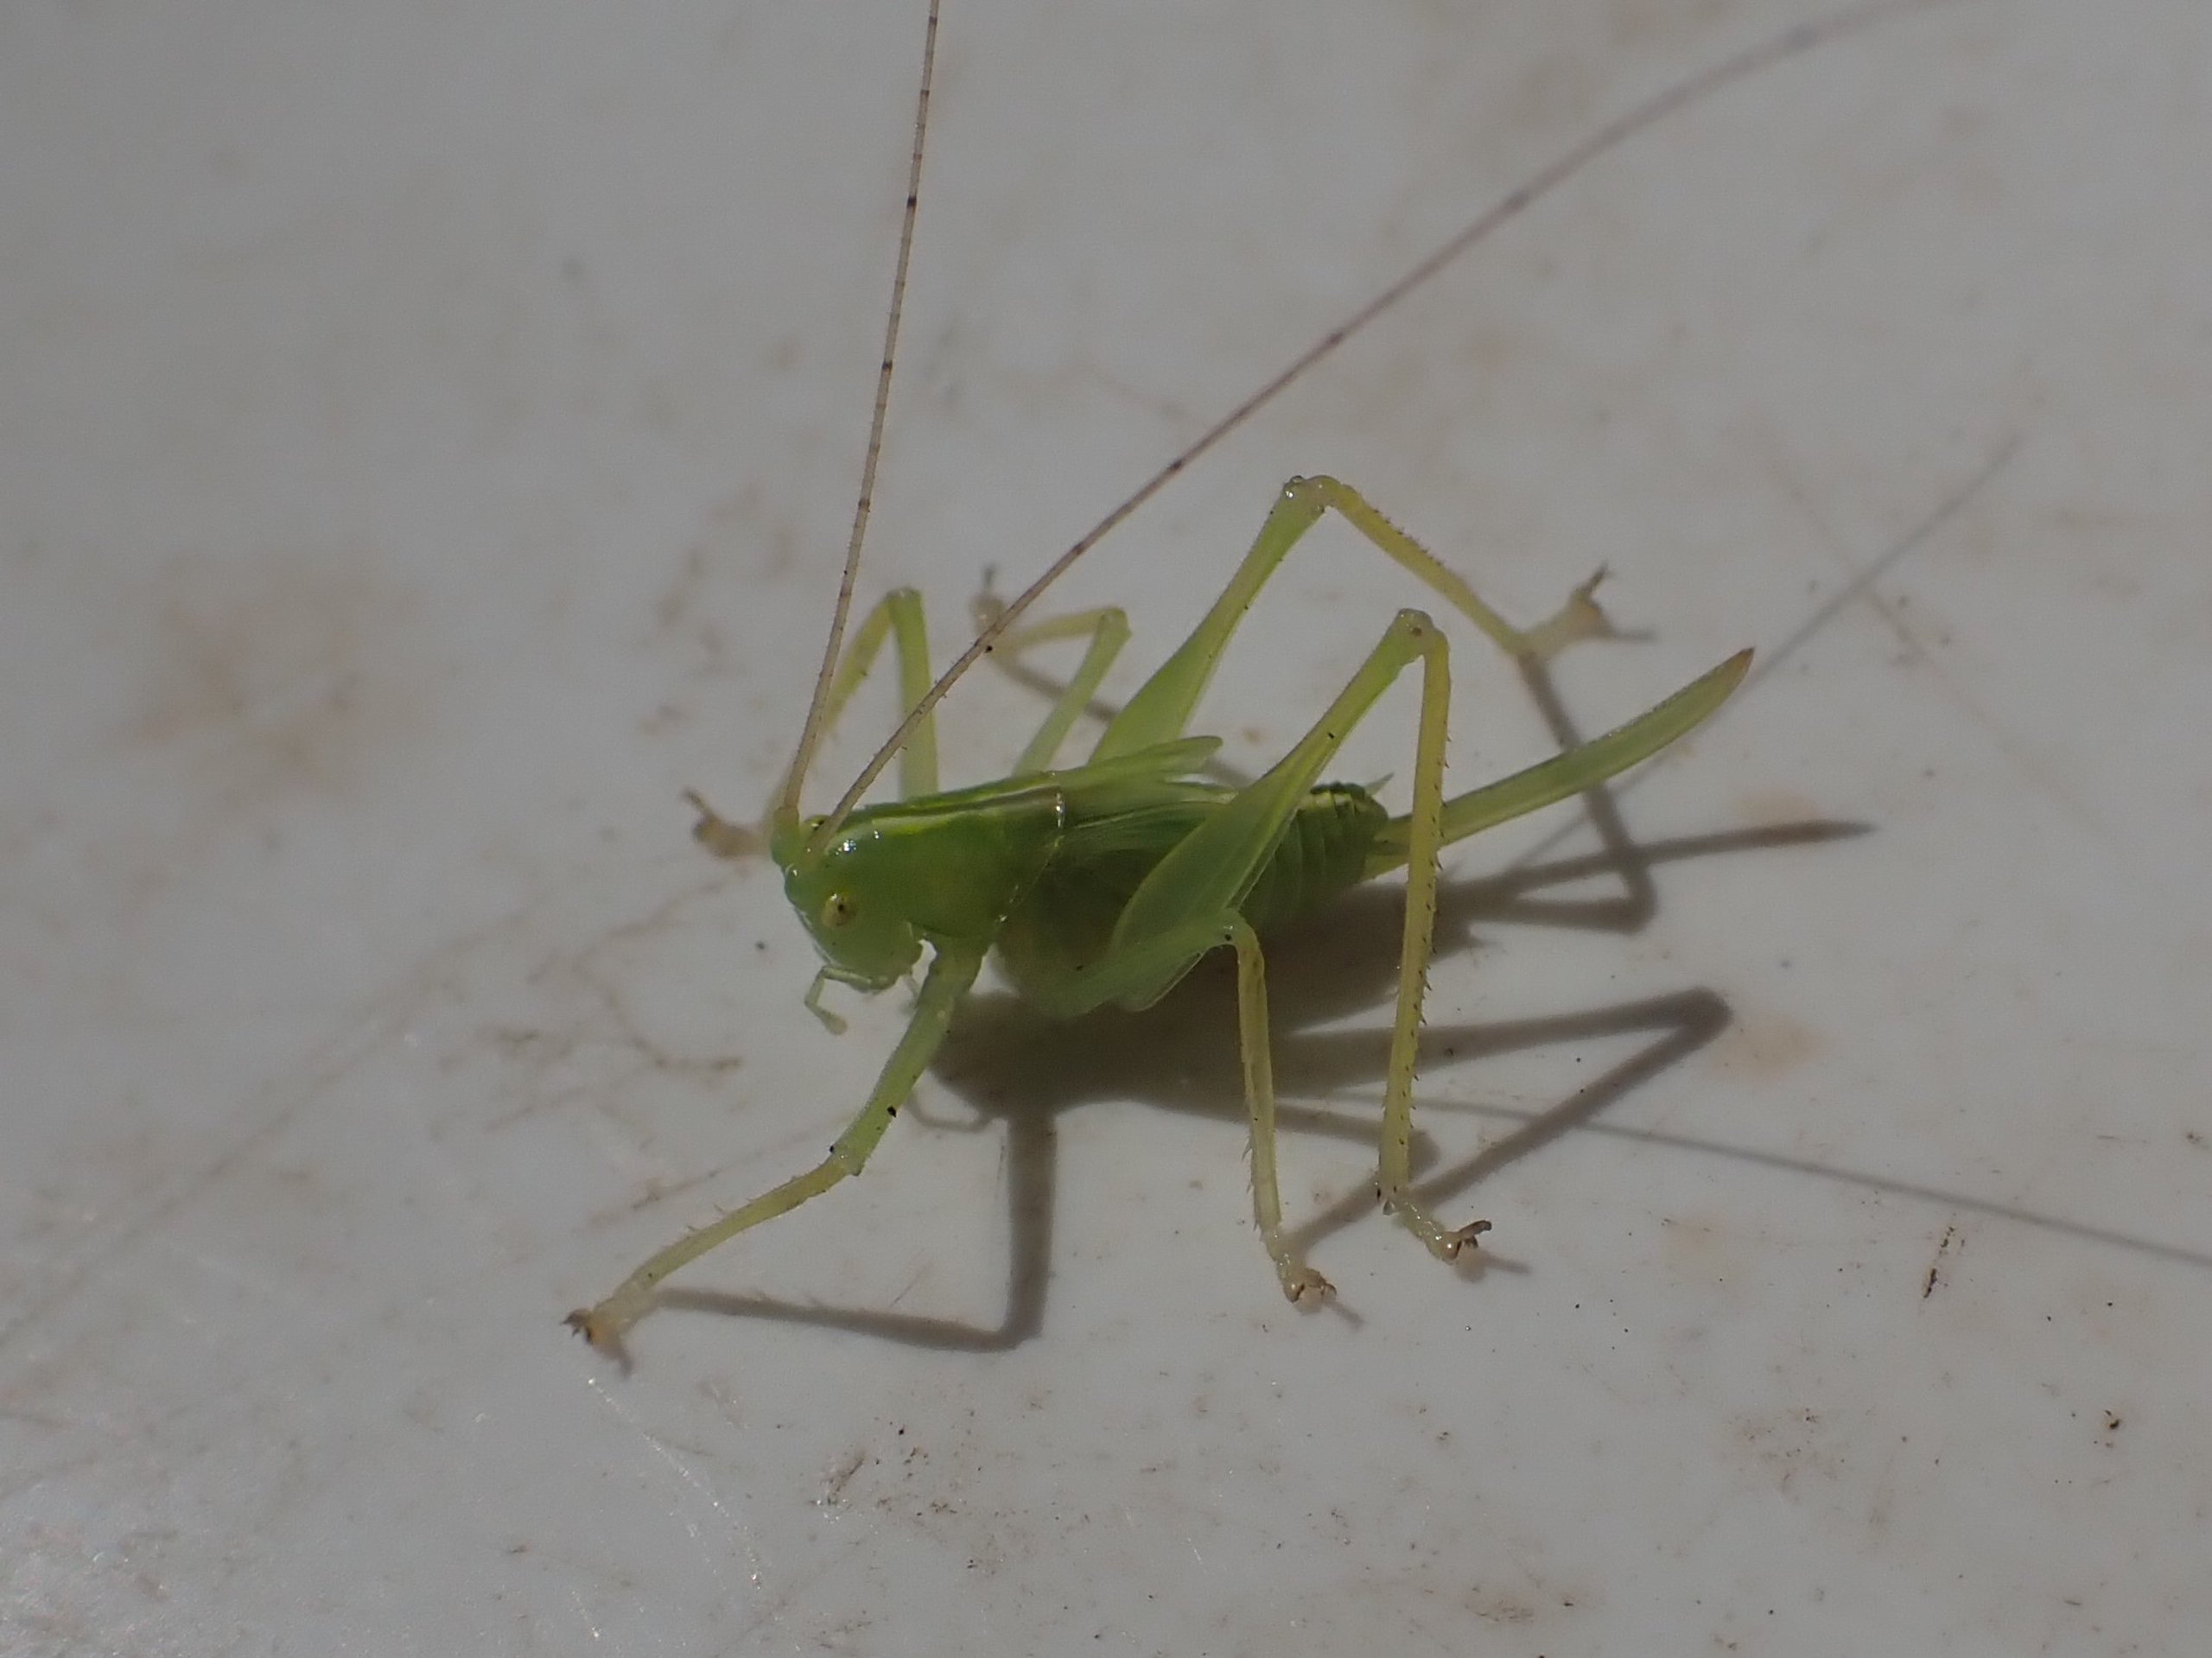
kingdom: Animalia
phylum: Arthropoda
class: Insecta
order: Orthoptera
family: Tettigoniidae
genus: Meconema
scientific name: Meconema thalassinum
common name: Egegræshoppe
